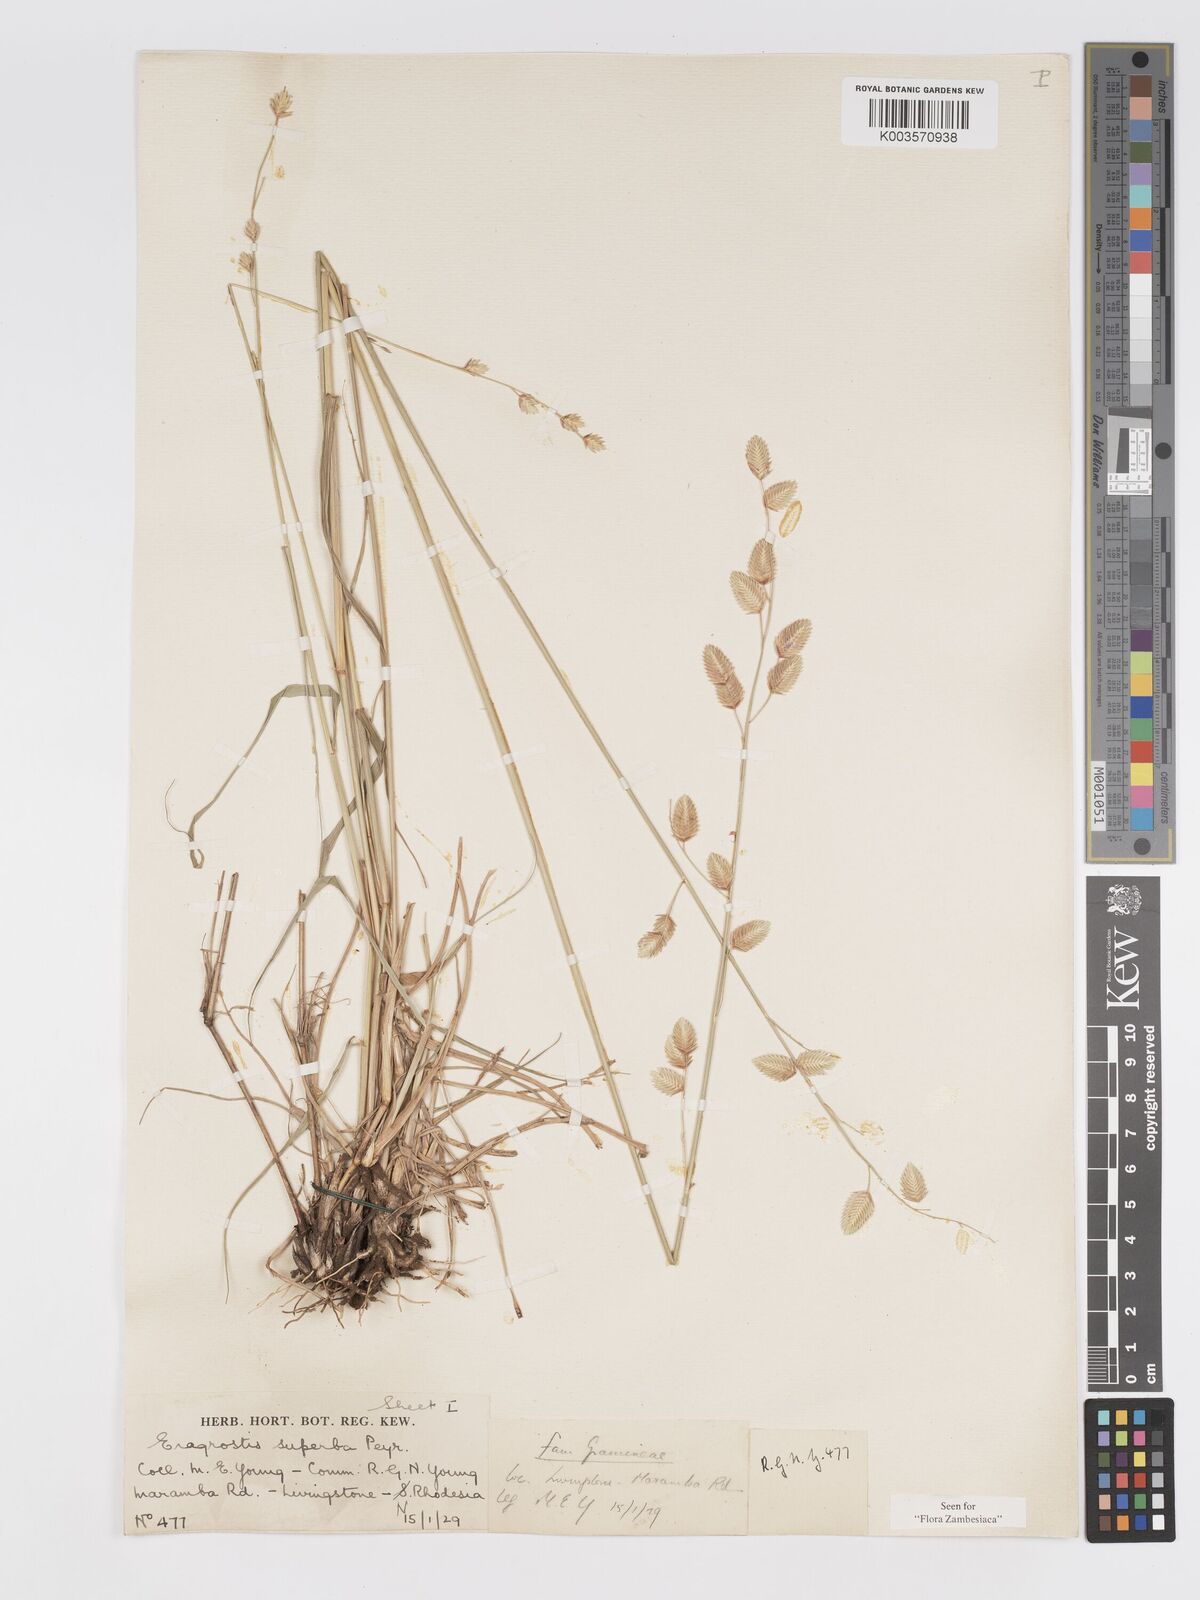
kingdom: Plantae
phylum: Tracheophyta
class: Liliopsida
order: Poales
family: Poaceae
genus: Eragrostis
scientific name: Eragrostis superba
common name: Wilman lovegrass
